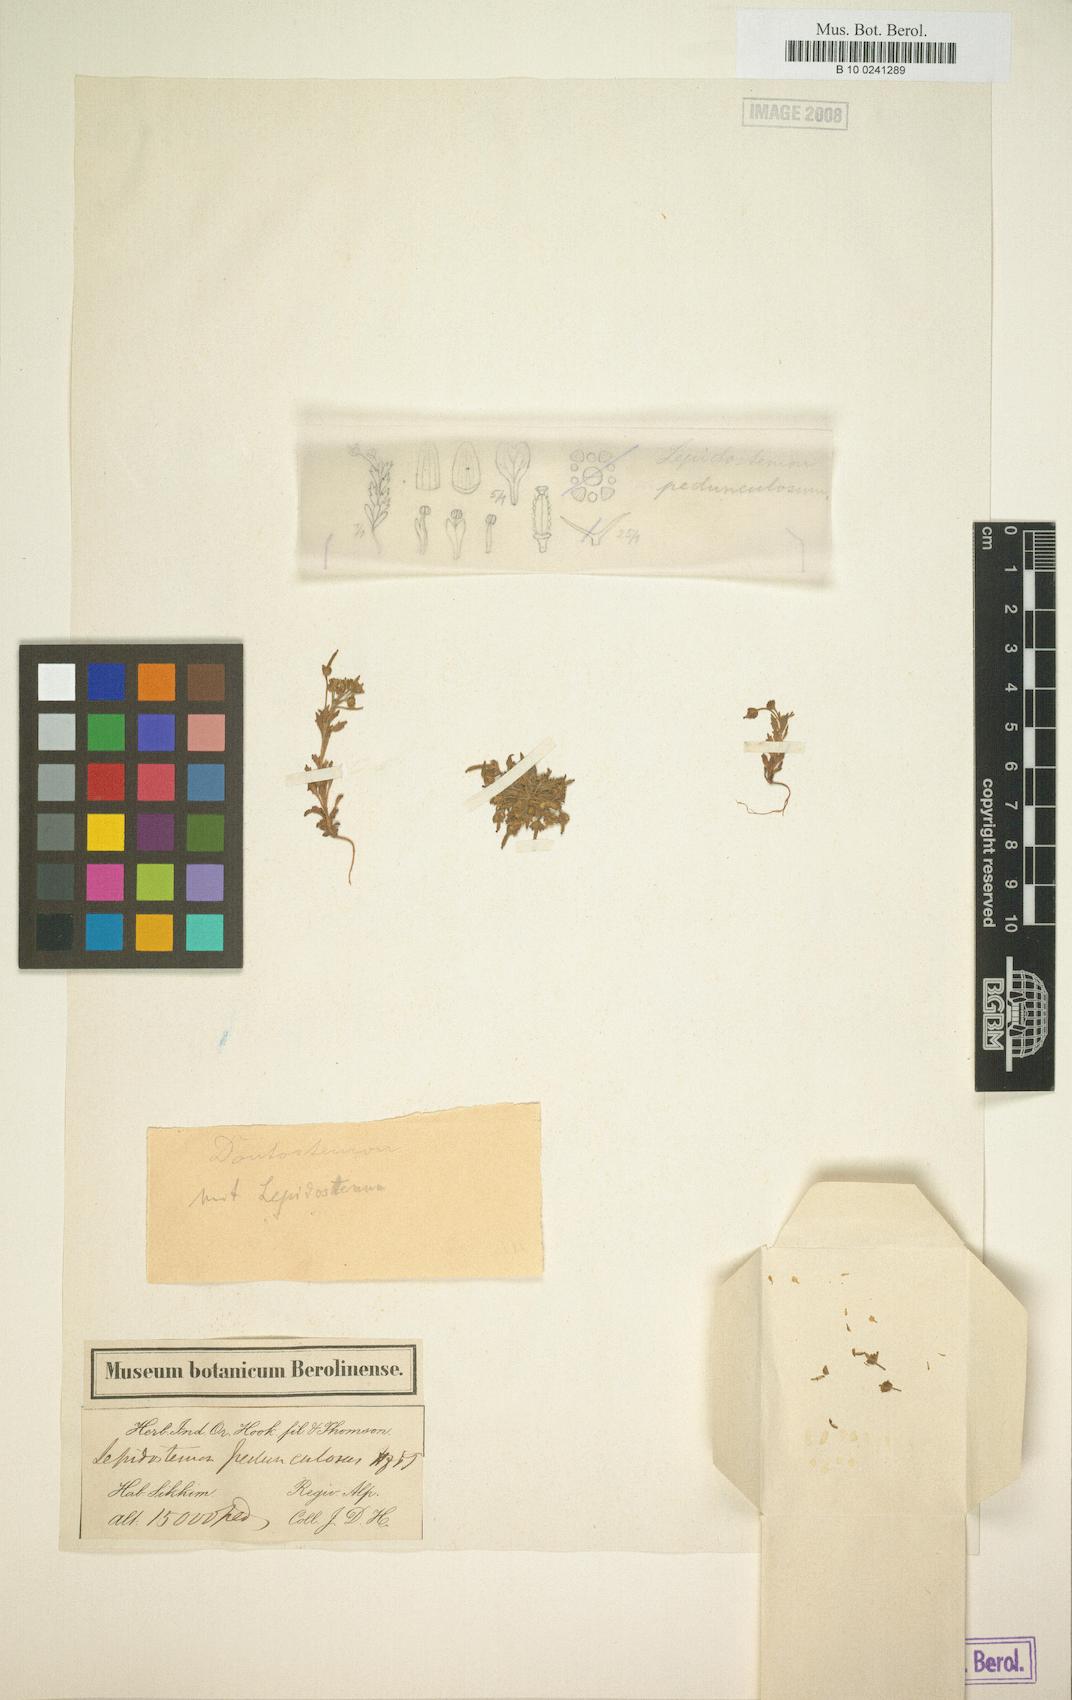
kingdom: Plantae
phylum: Tracheophyta
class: Magnoliopsida
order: Brassicales
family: Brassicaceae
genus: Lepidostemon
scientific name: Lepidostemon pedunculosus
